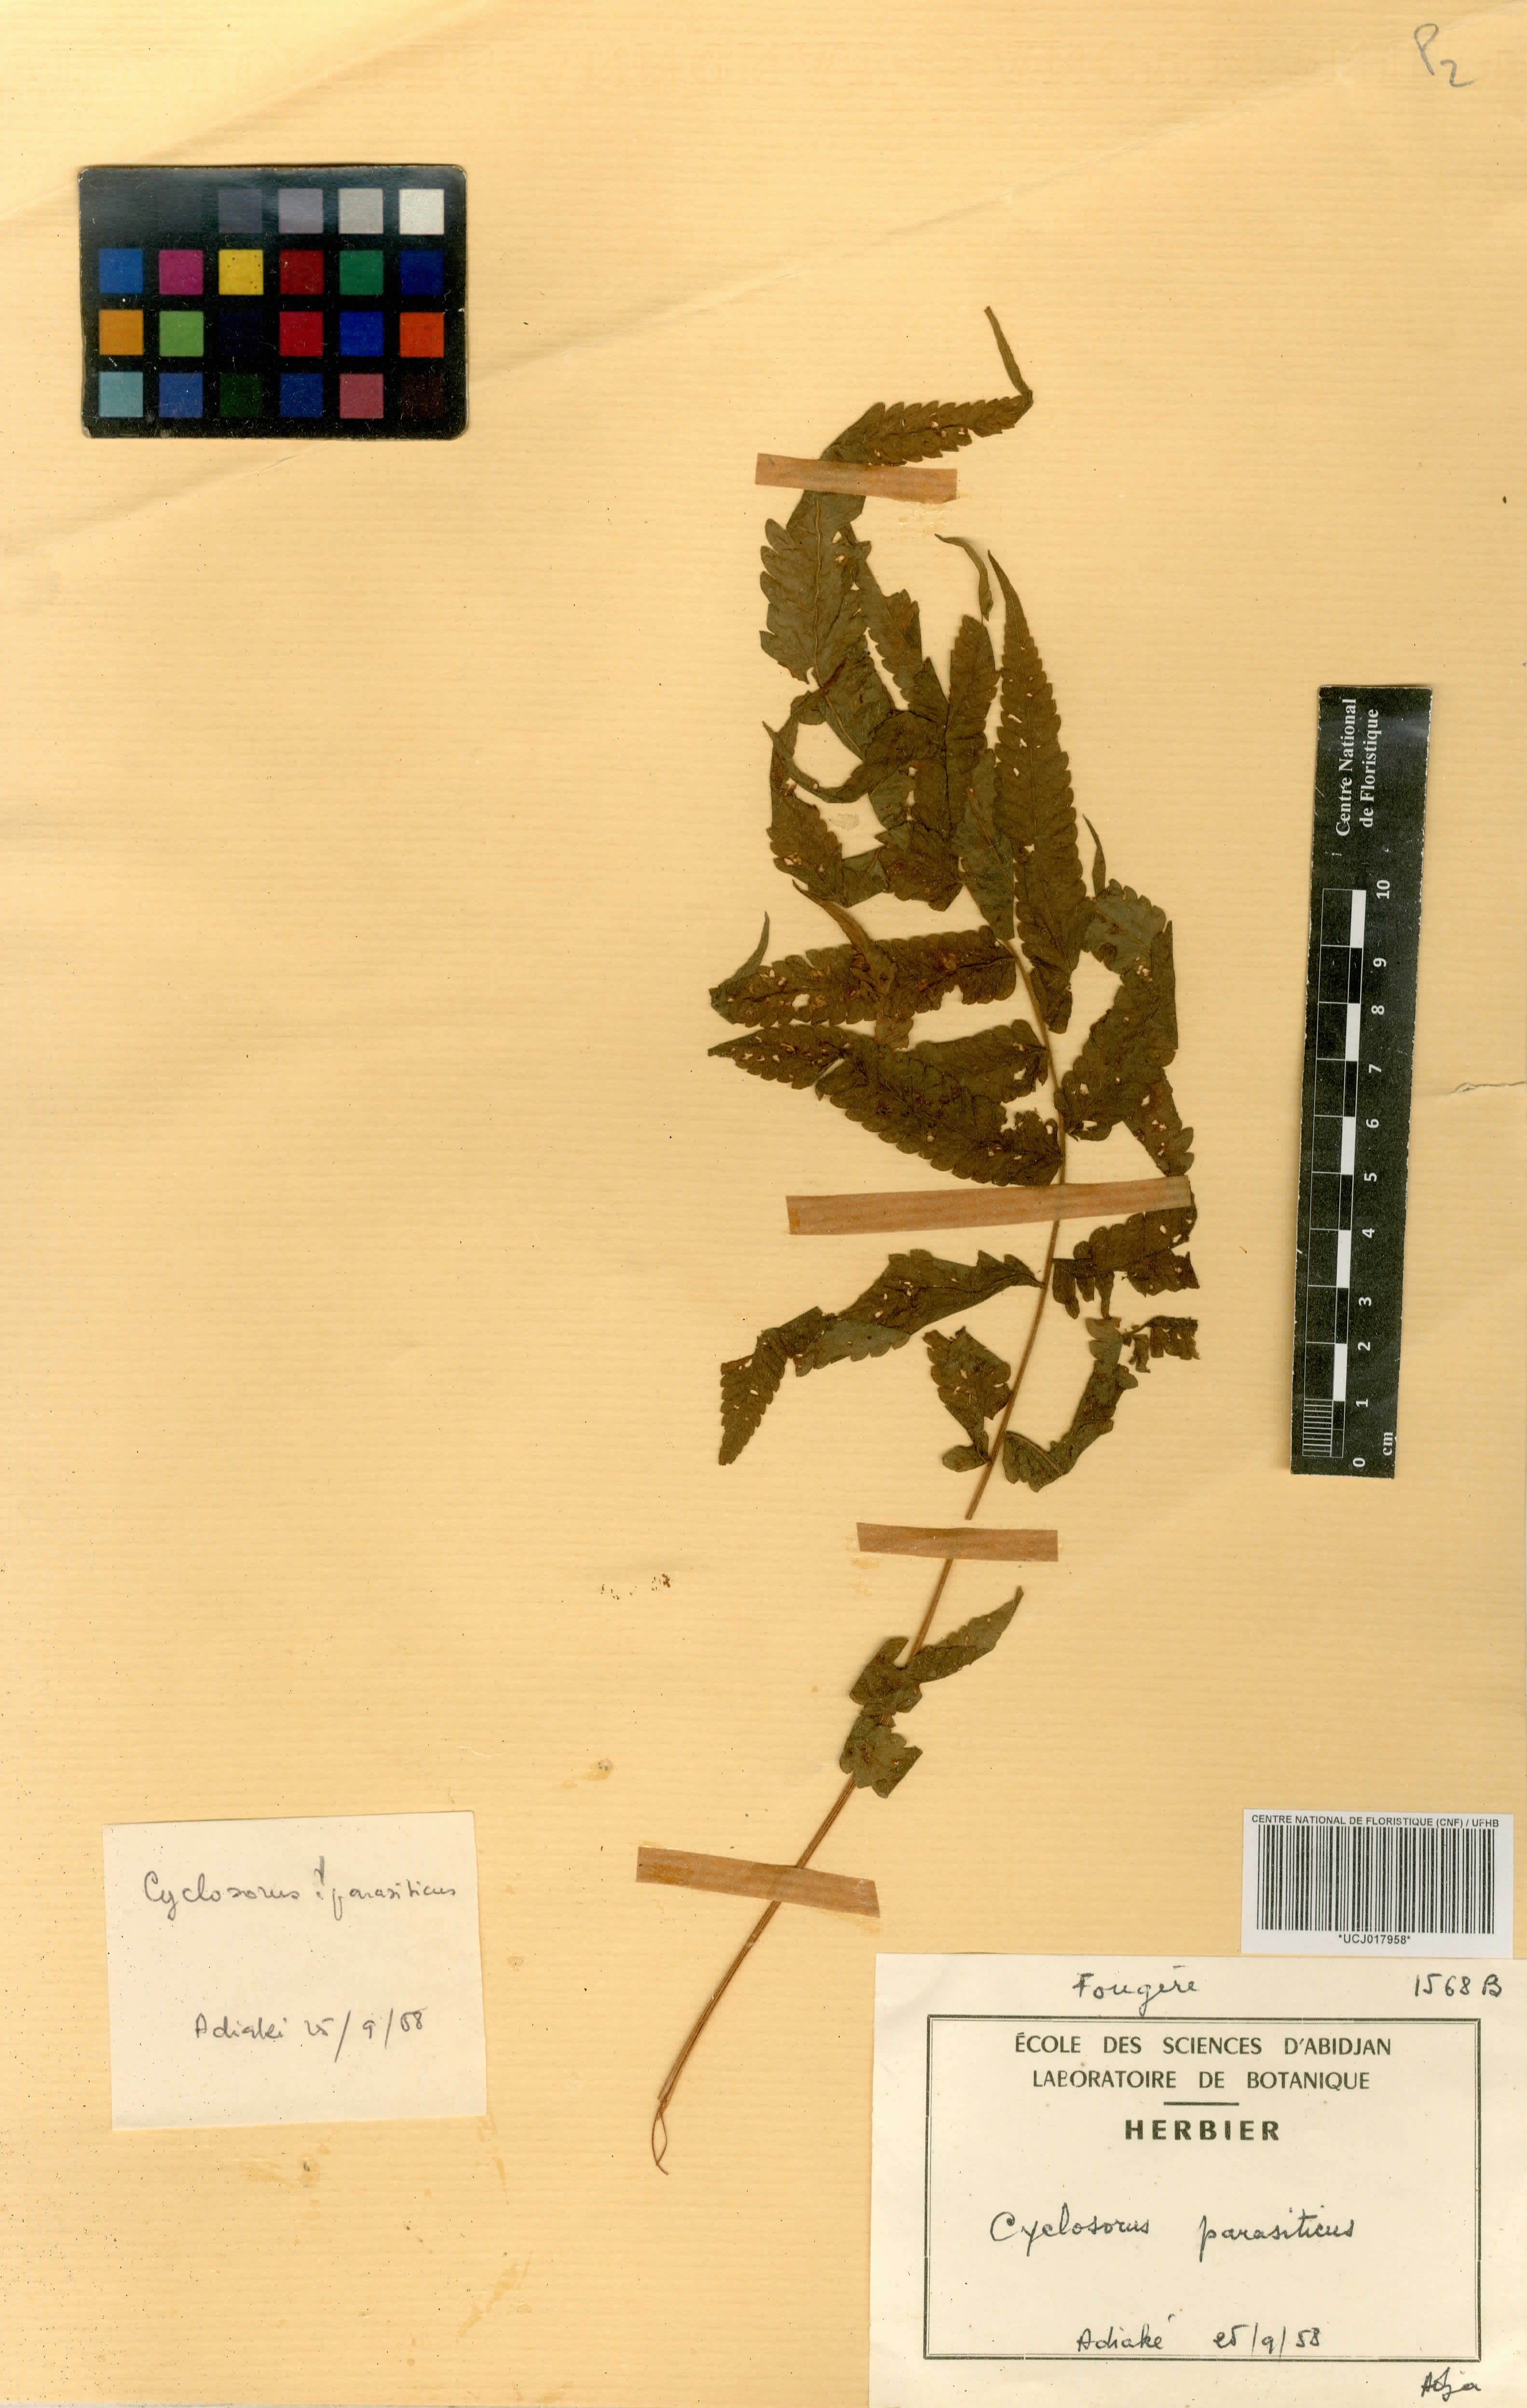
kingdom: Plantae
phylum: Tracheophyta
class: Polypodiopsida
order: Polypodiales
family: Thelypteridaceae
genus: Christella
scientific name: Christella parasitica
